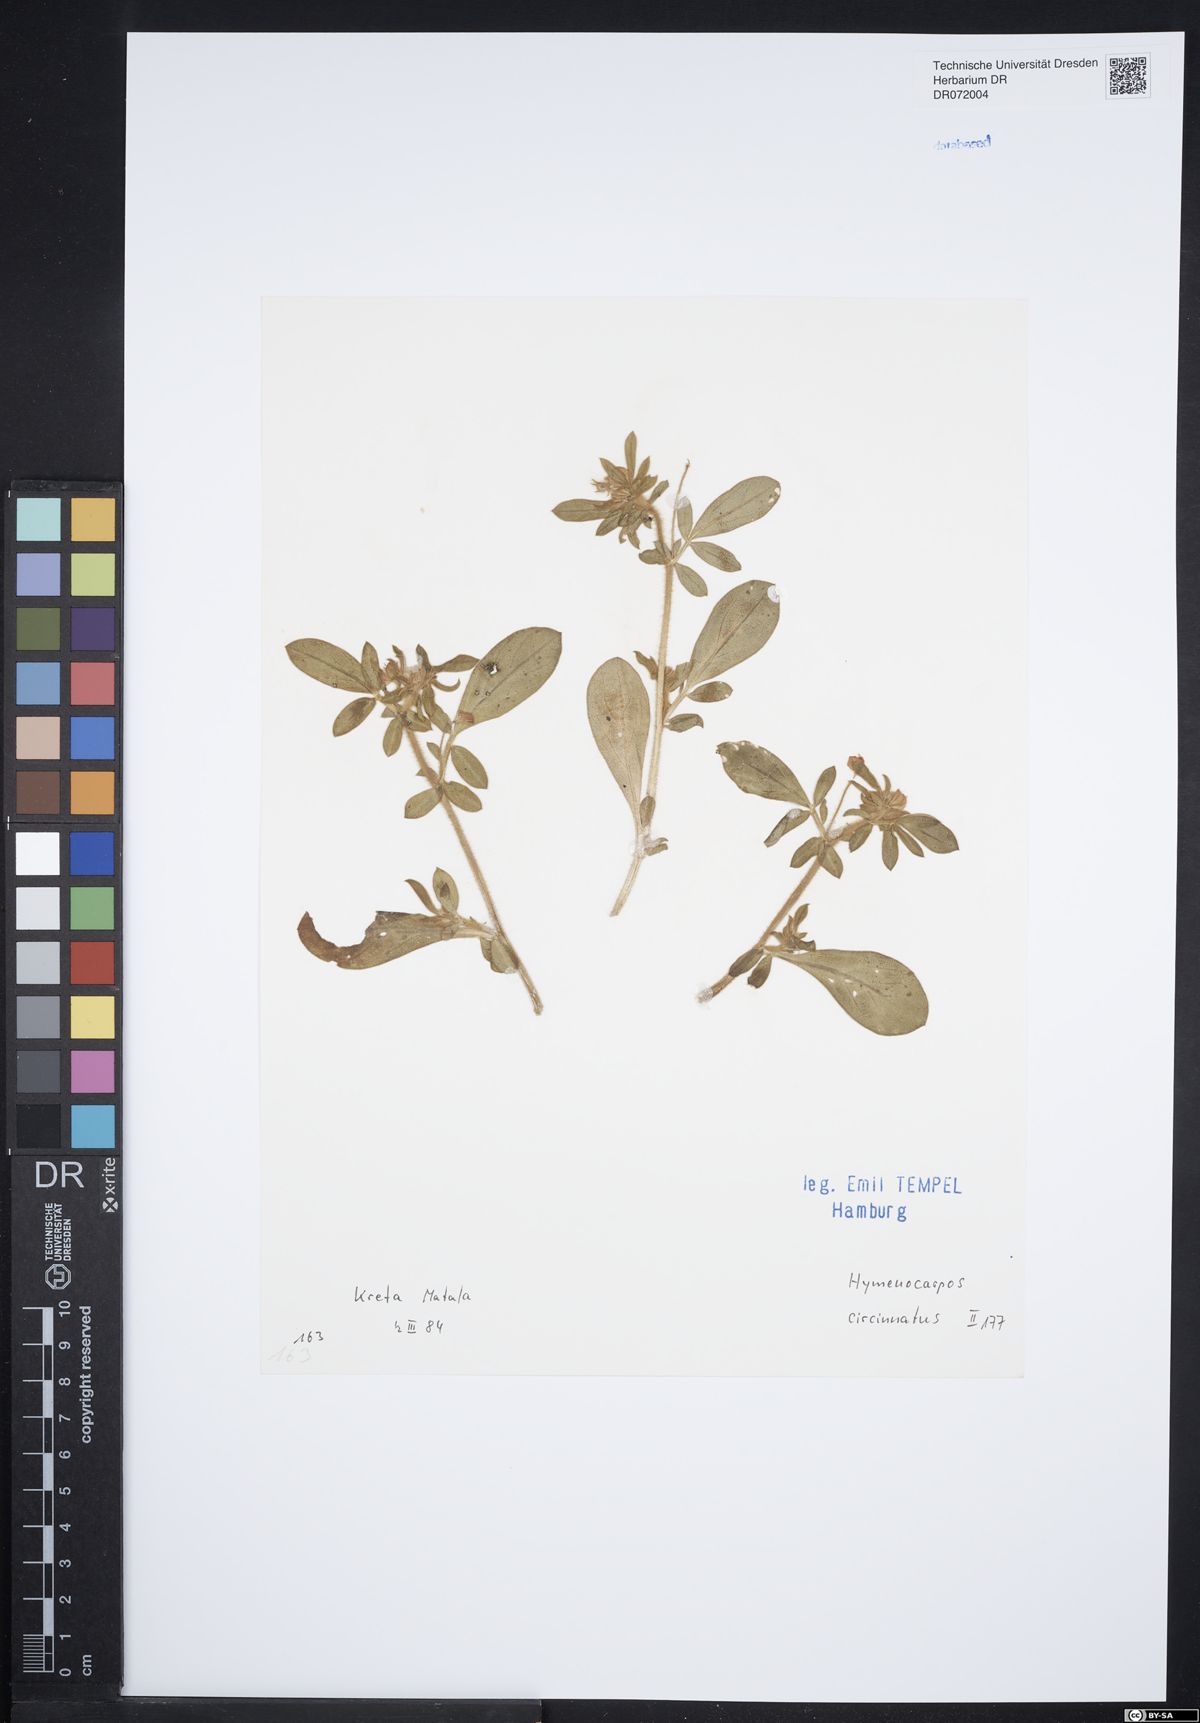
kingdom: Plantae
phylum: Tracheophyta
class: Magnoliopsida
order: Fabales
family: Fabaceae
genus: Anthyllis
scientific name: Anthyllis circinnata
